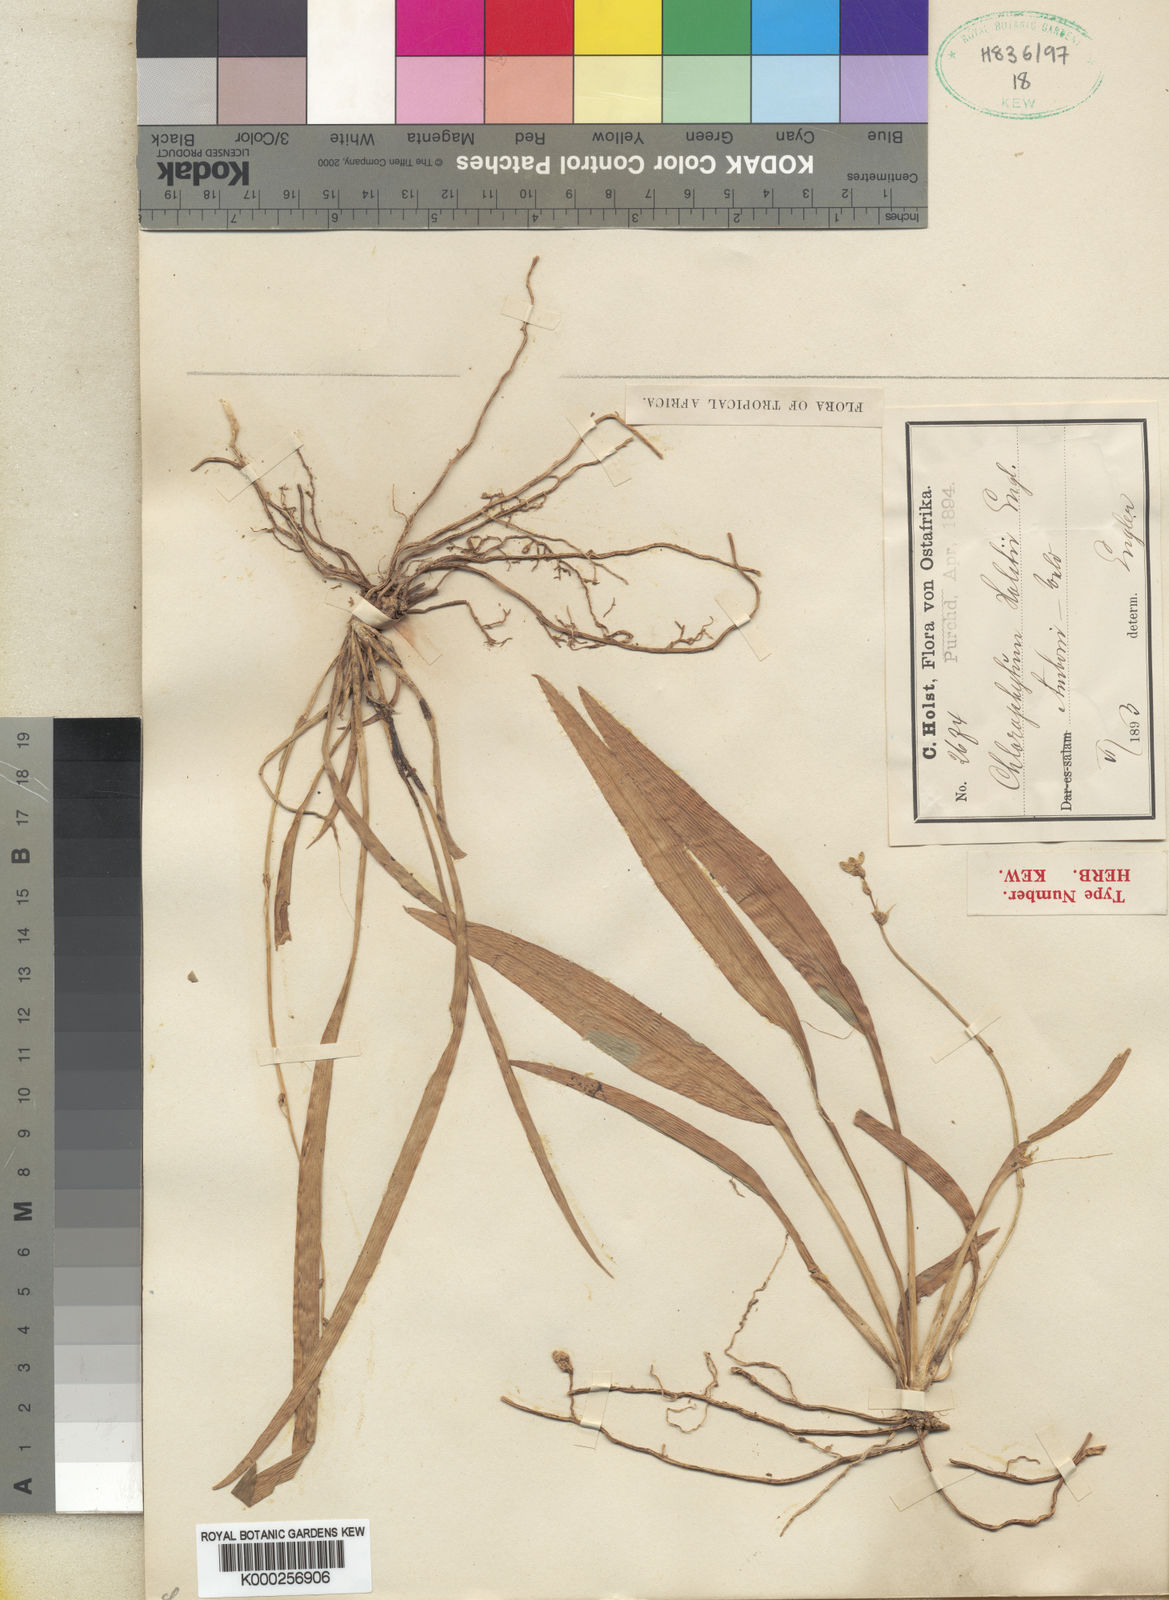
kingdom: Plantae
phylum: Tracheophyta
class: Liliopsida
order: Asparagales
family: Asparagaceae
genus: Chlorophytum
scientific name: Chlorophytum holstii
